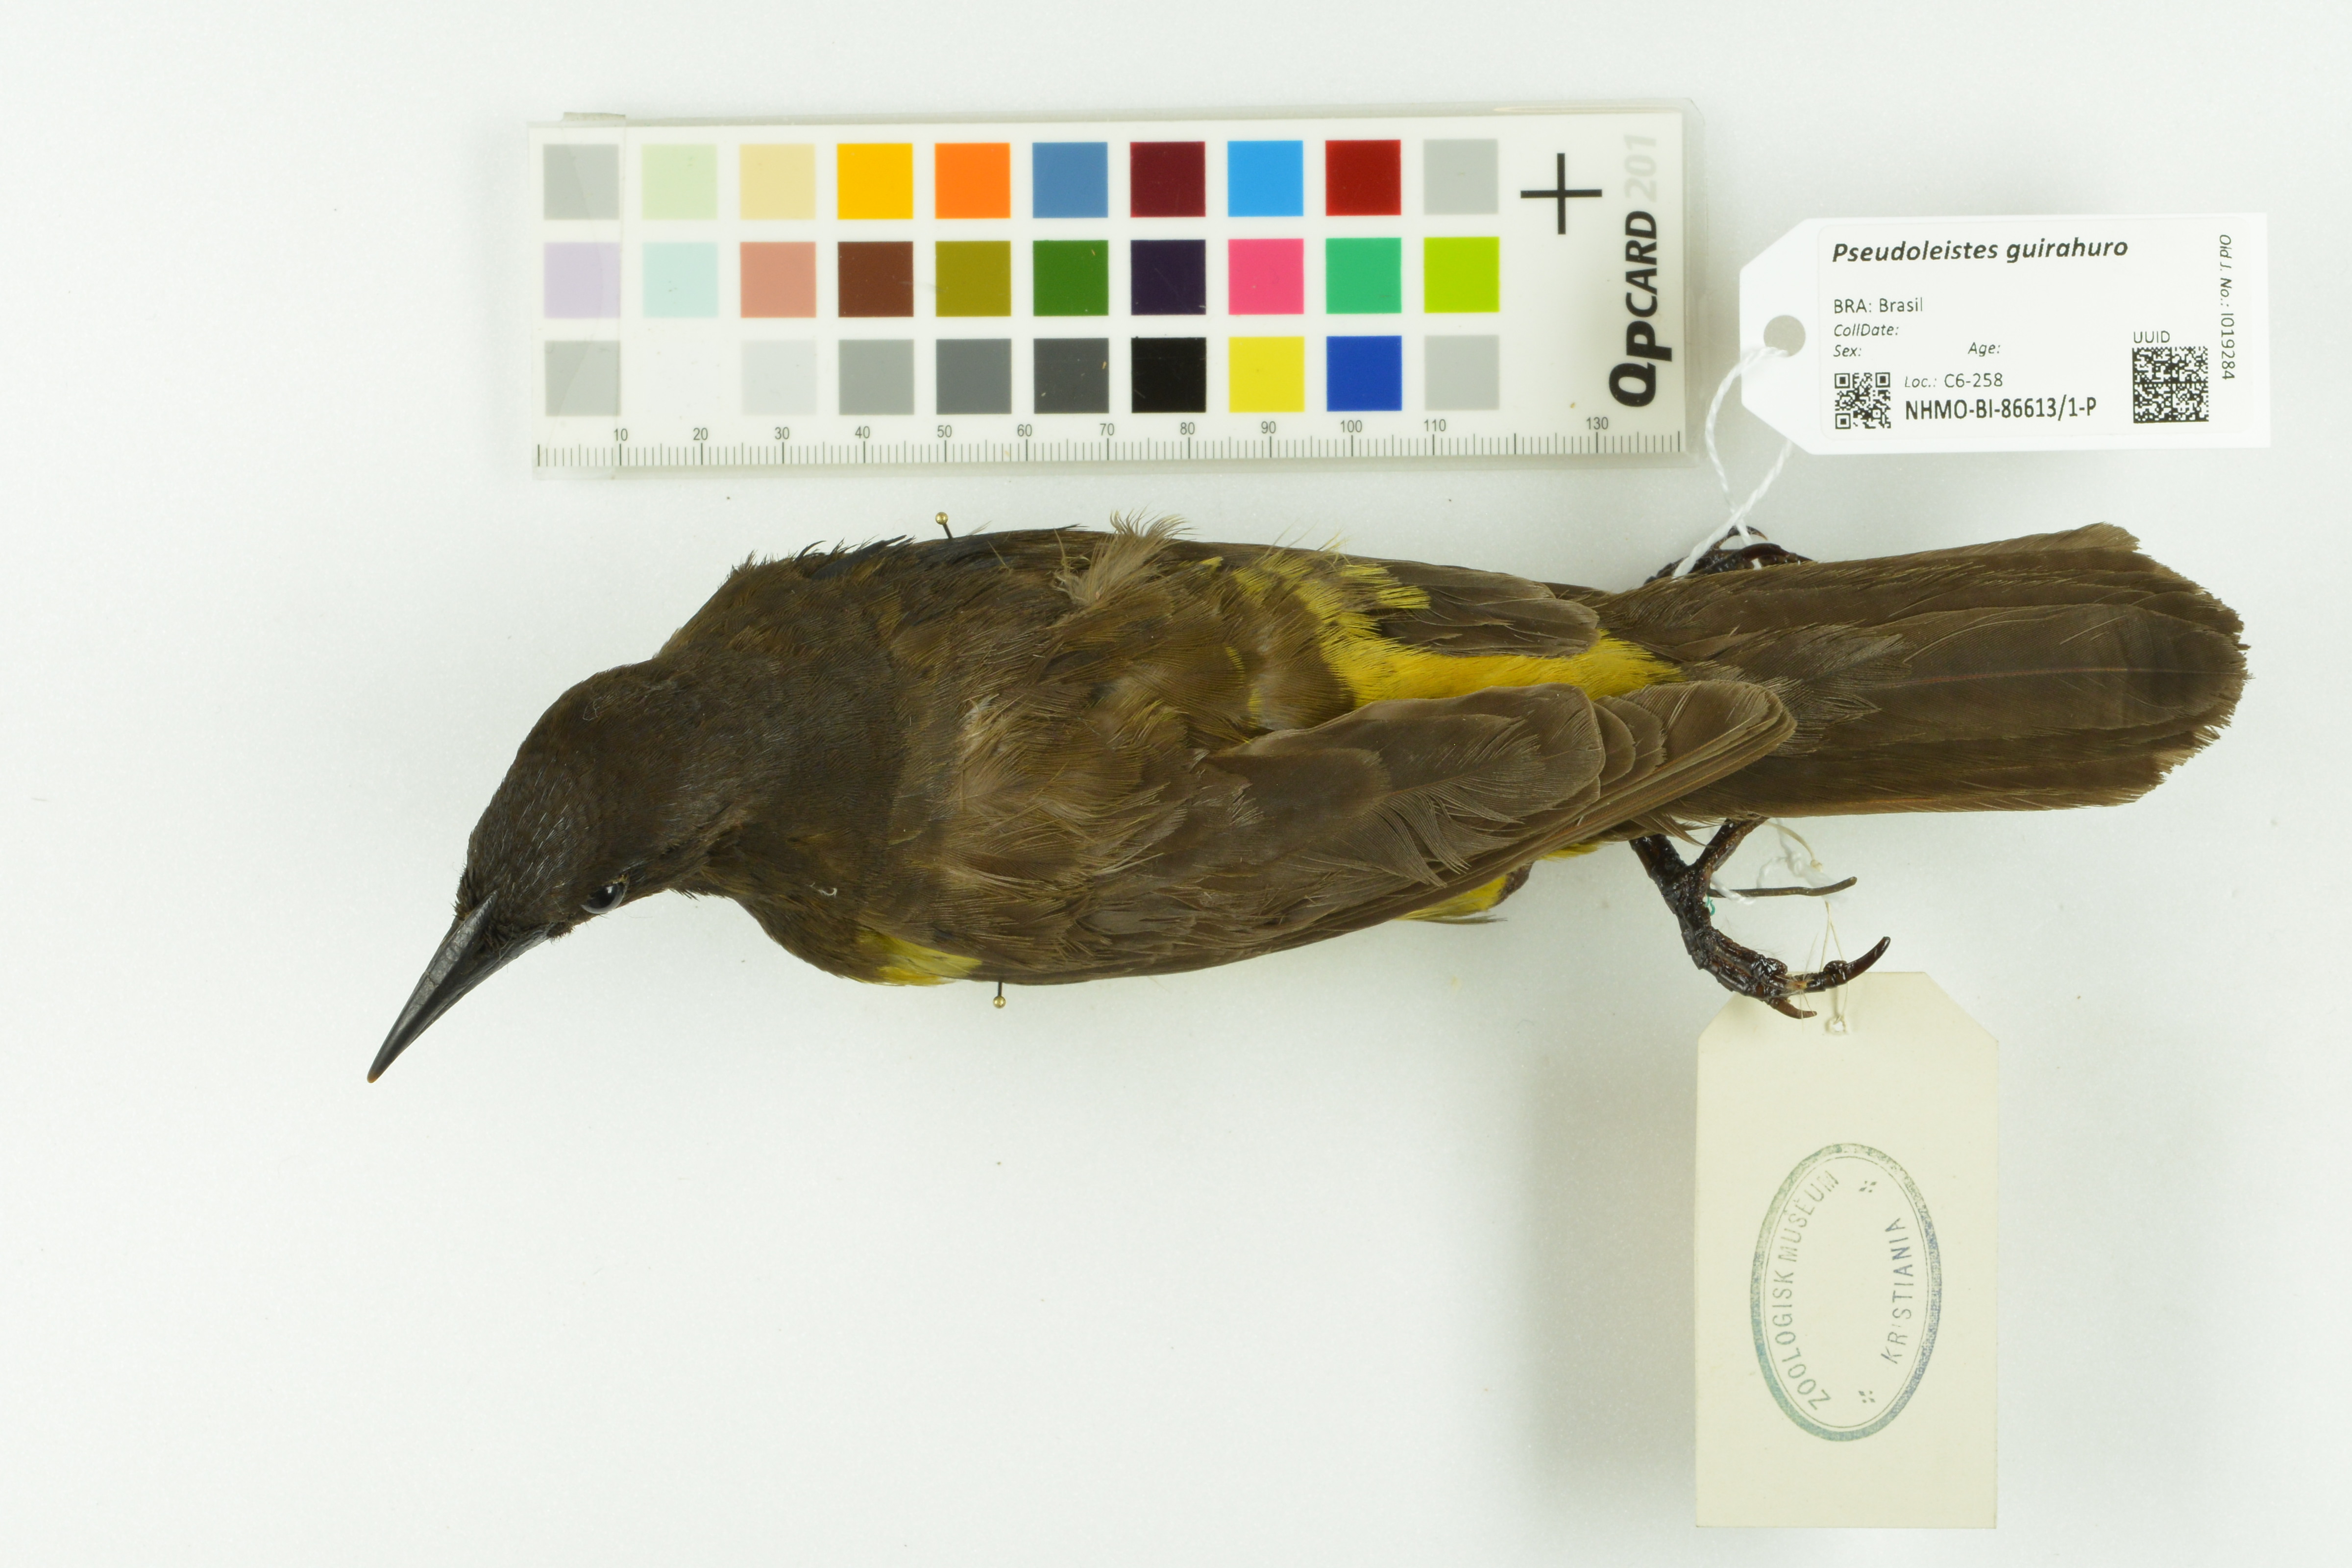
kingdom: Animalia
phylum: Chordata
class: Aves
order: Passeriformes
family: Icteridae
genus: Pseudoleistes
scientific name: Pseudoleistes guirahuro
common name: Yellow-rumped marshbird
